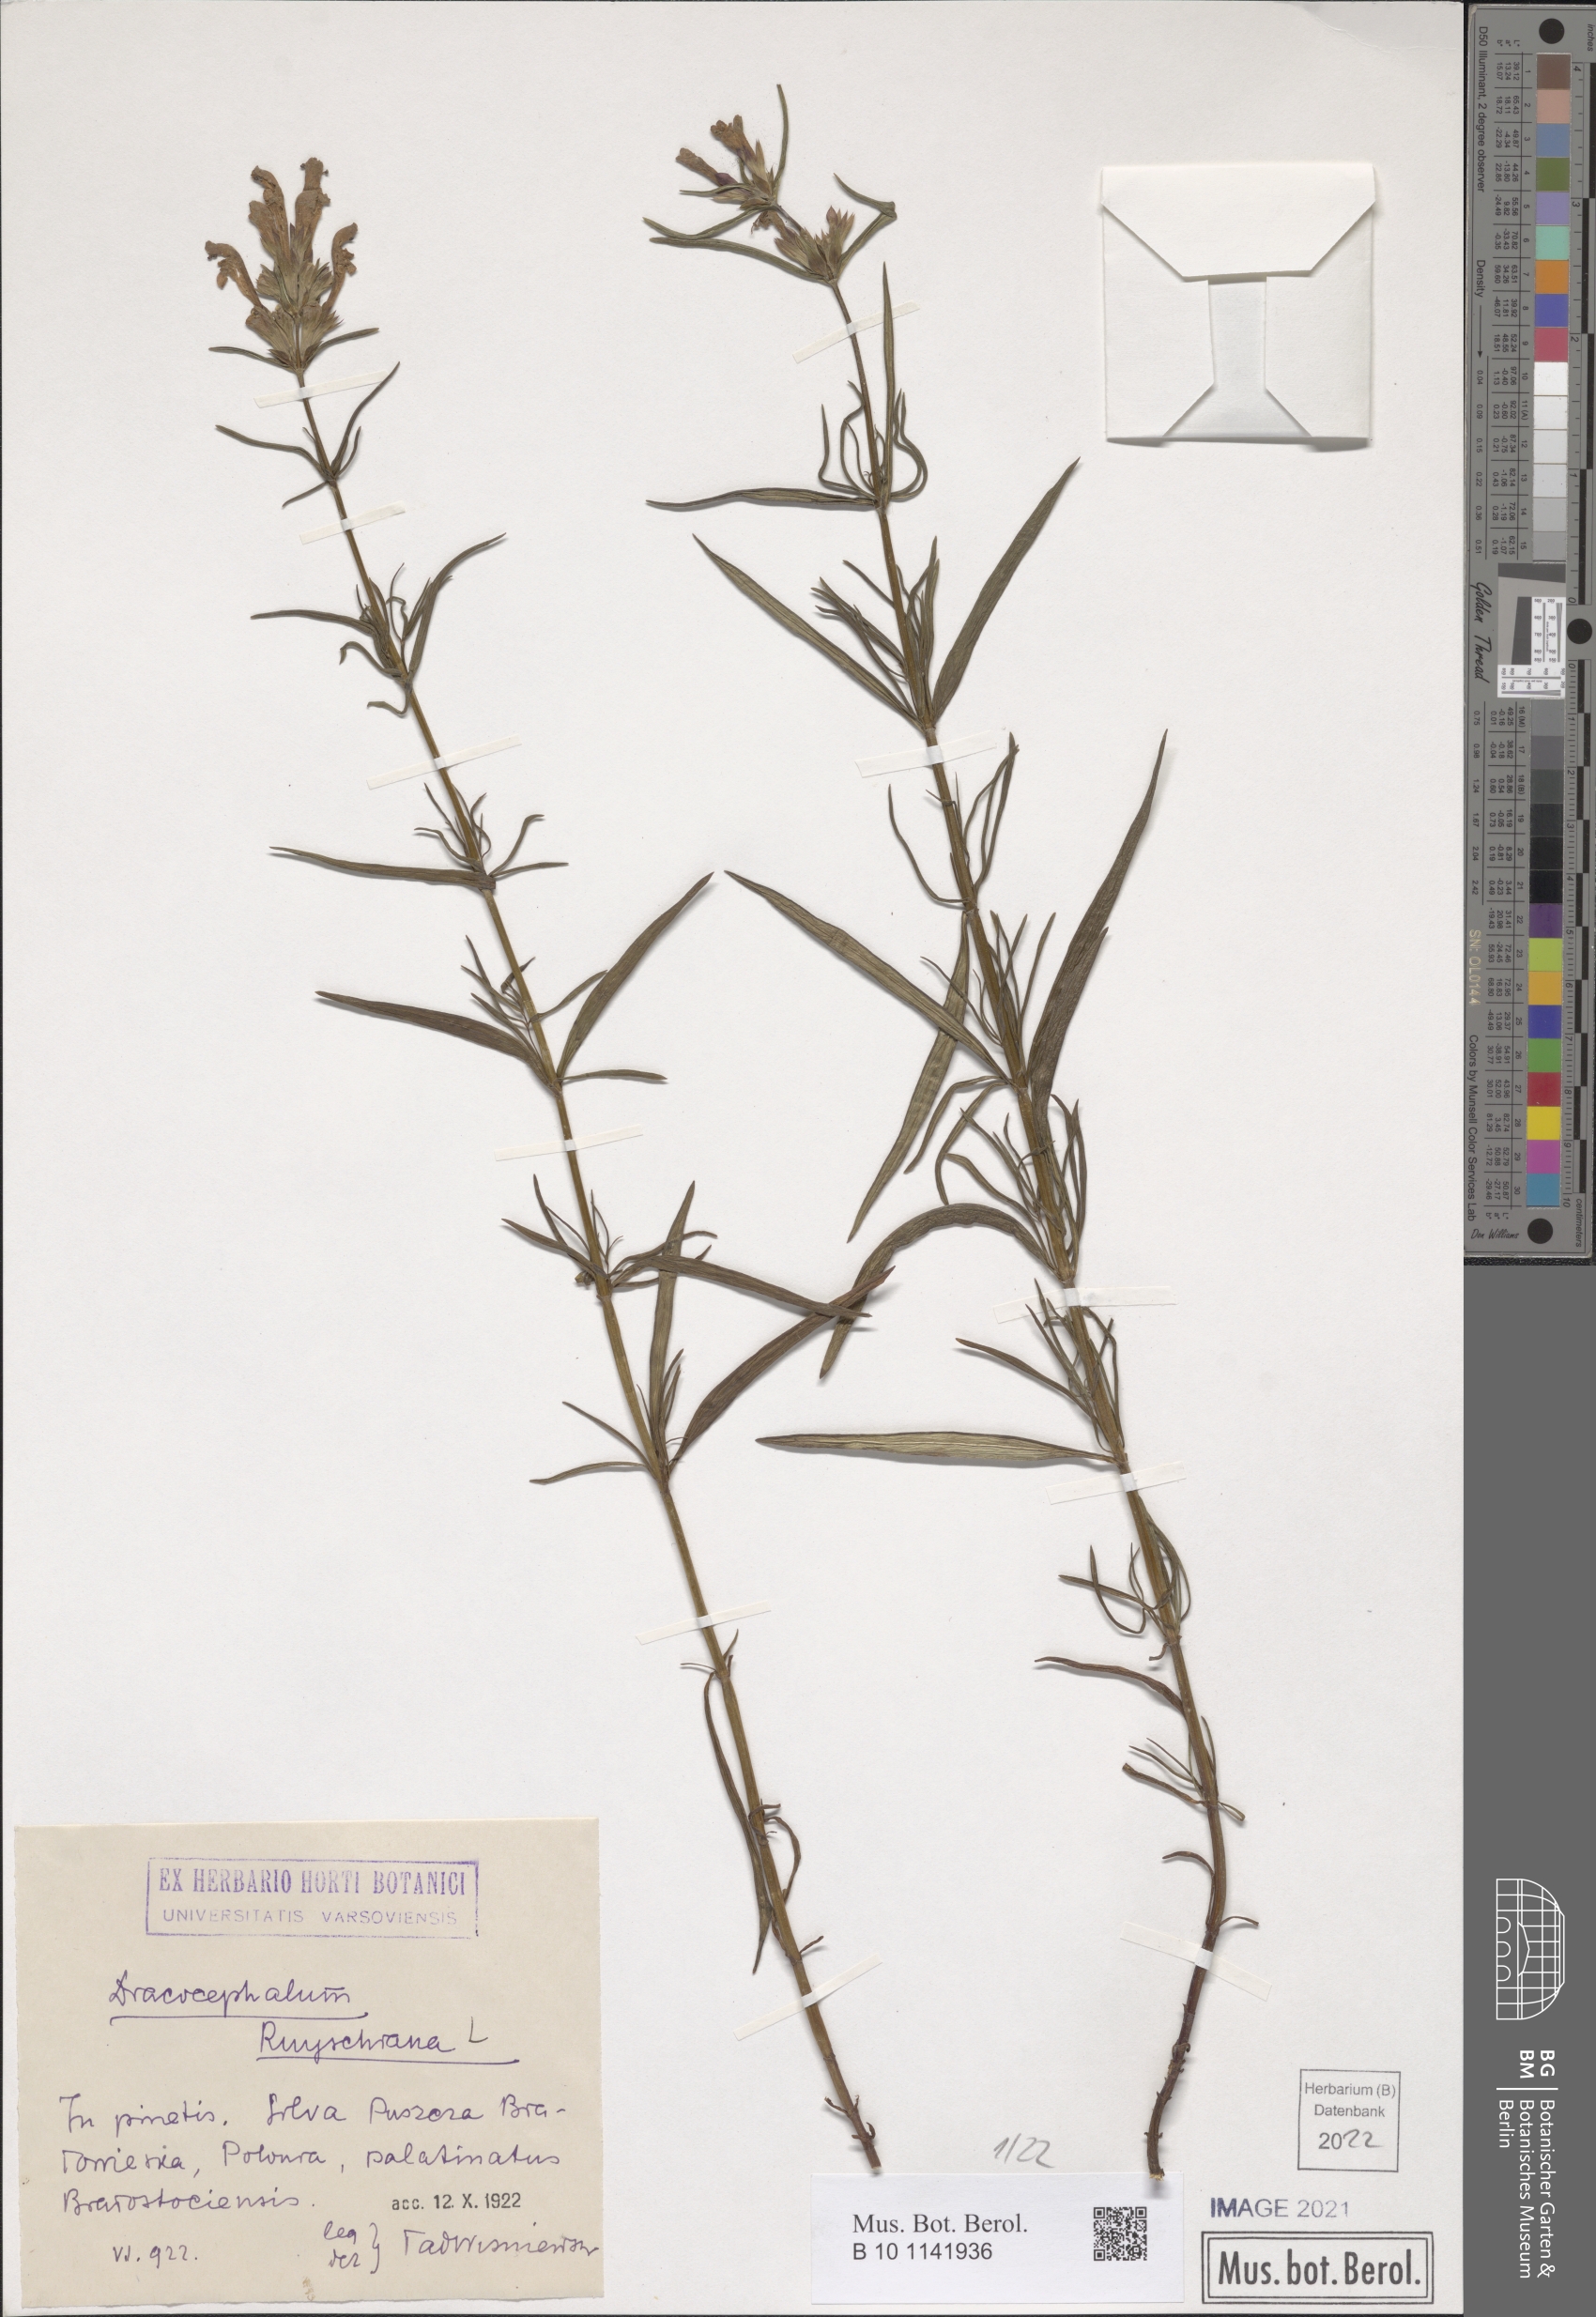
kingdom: Plantae
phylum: Tracheophyta
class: Magnoliopsida
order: Lamiales
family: Lamiaceae
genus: Dracocephalum
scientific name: Dracocephalum ruyschiana
